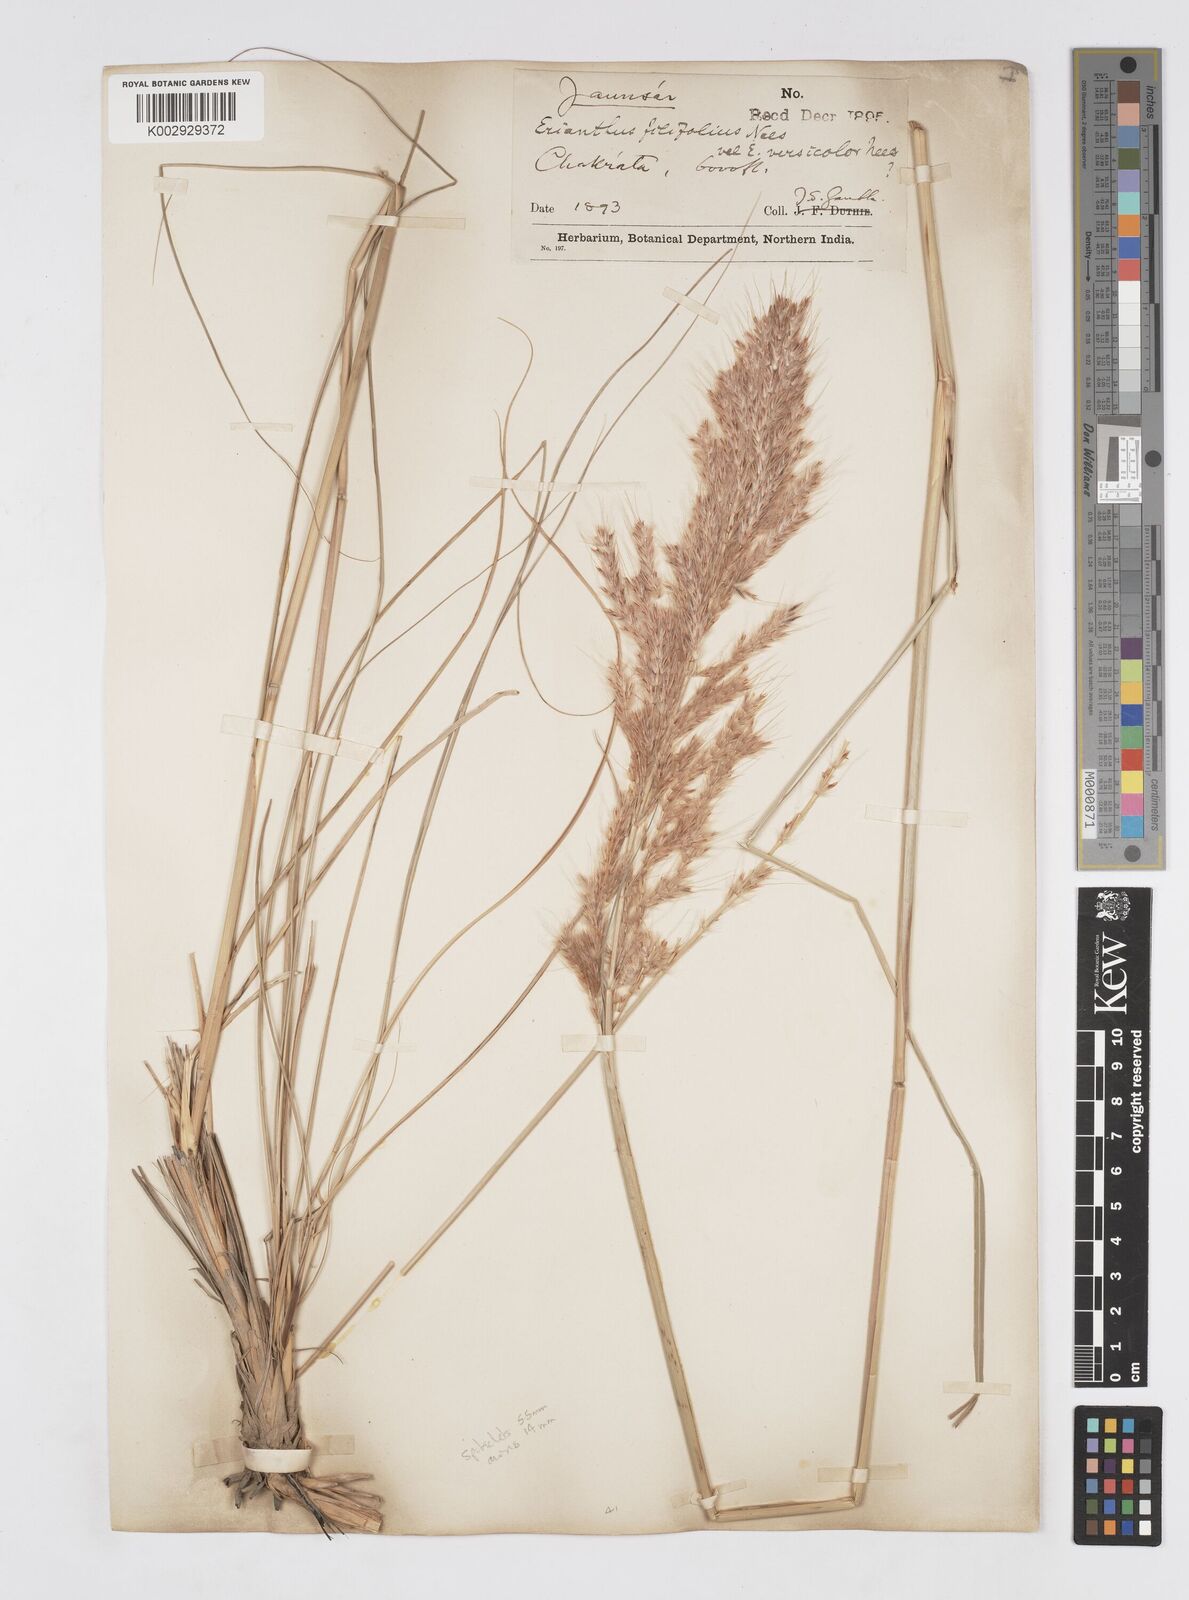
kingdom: Plantae
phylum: Tracheophyta
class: Liliopsida
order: Poales
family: Poaceae
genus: Saccharum
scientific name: Saccharum filifolium
